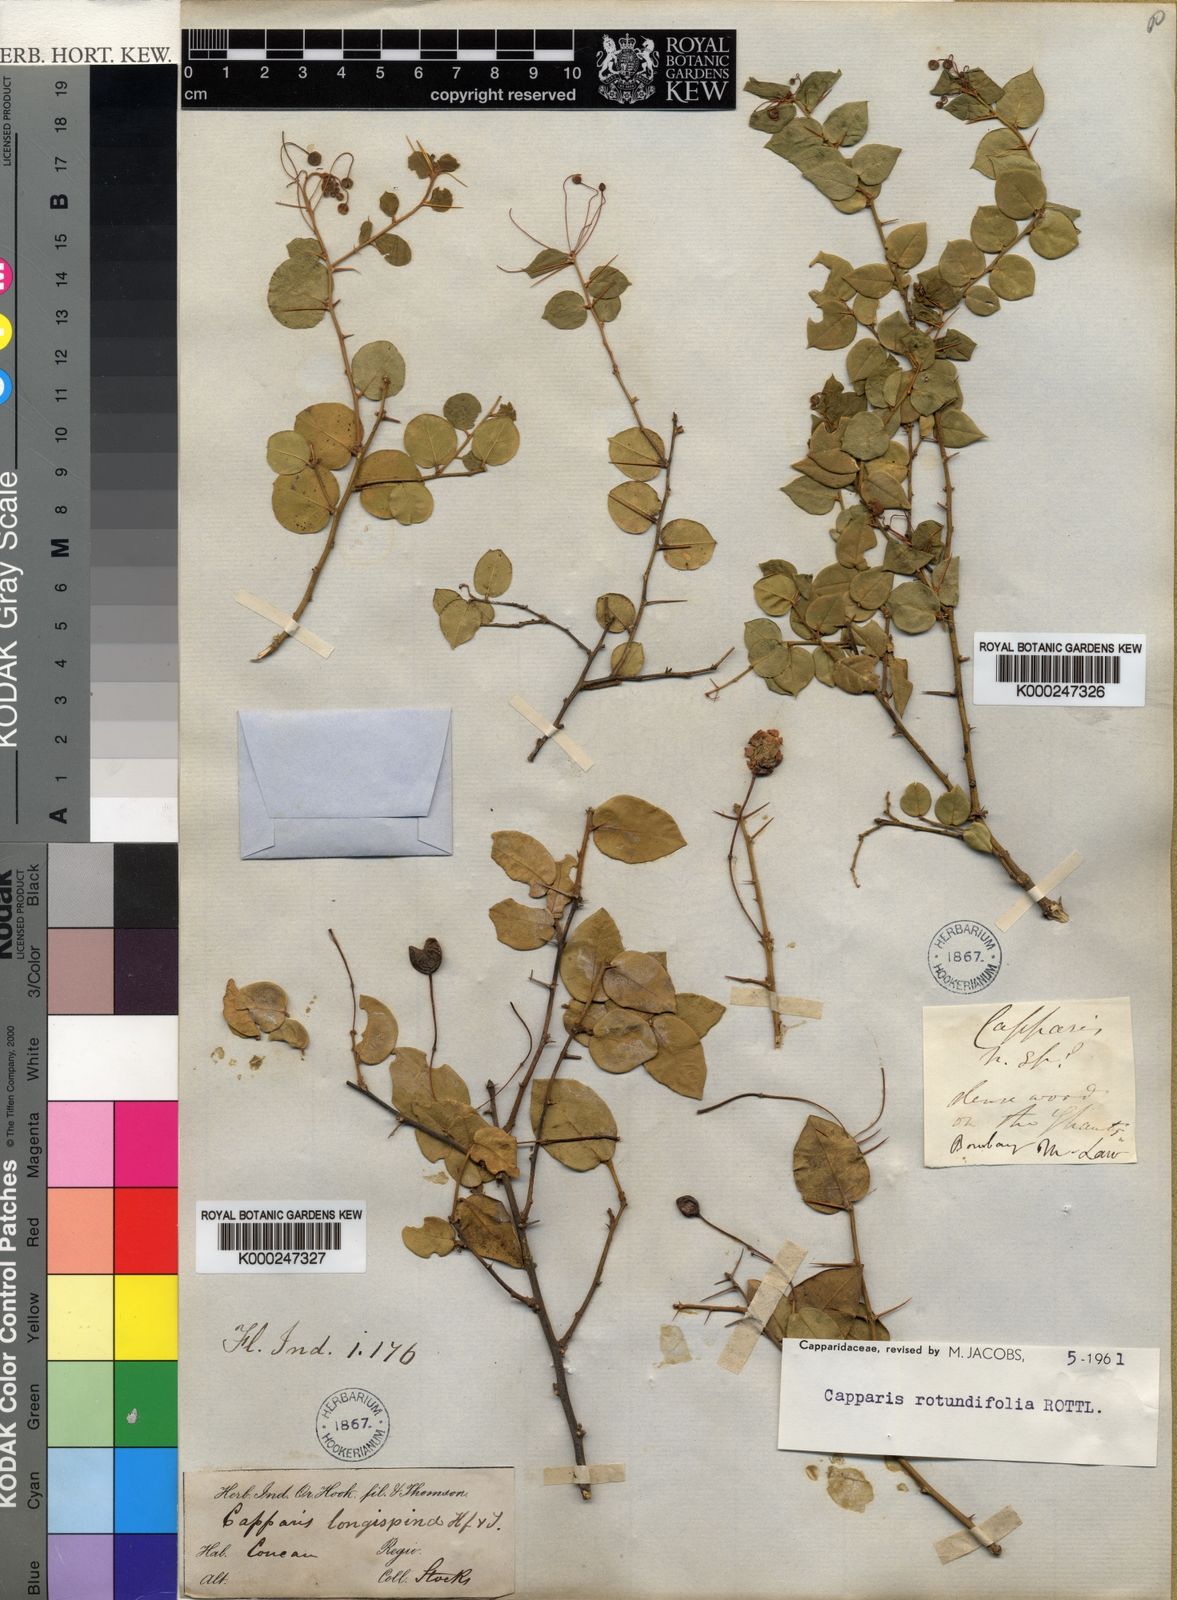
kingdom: Plantae
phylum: Tracheophyta
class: Magnoliopsida
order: Brassicales
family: Capparaceae
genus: Capparis
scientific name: Capparis rotundifolia
